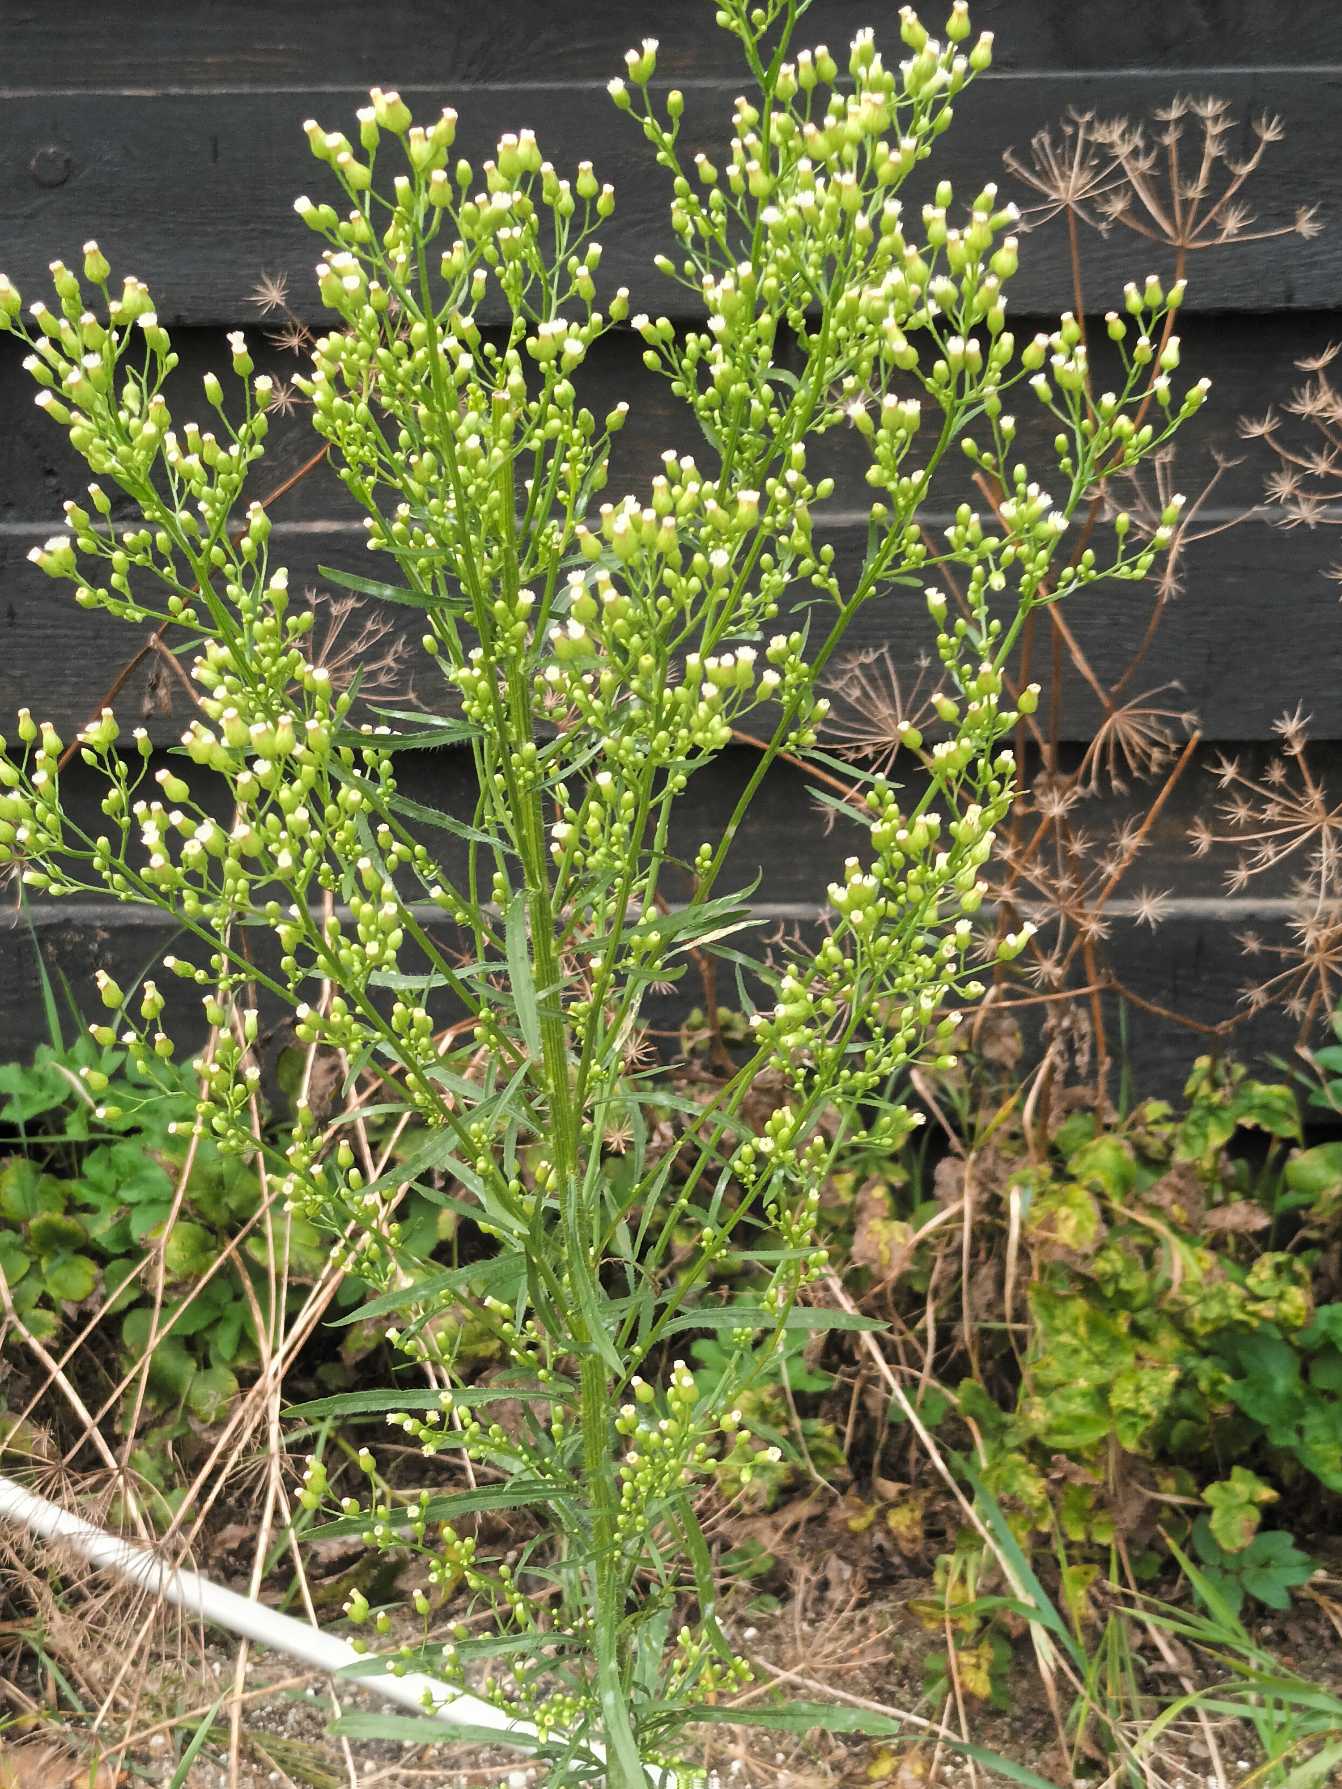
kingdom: Plantae
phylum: Tracheophyta
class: Magnoliopsida
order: Asterales
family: Asteraceae
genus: Erigeron
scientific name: Erigeron canadensis
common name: Kanadisk bakkestjerne
